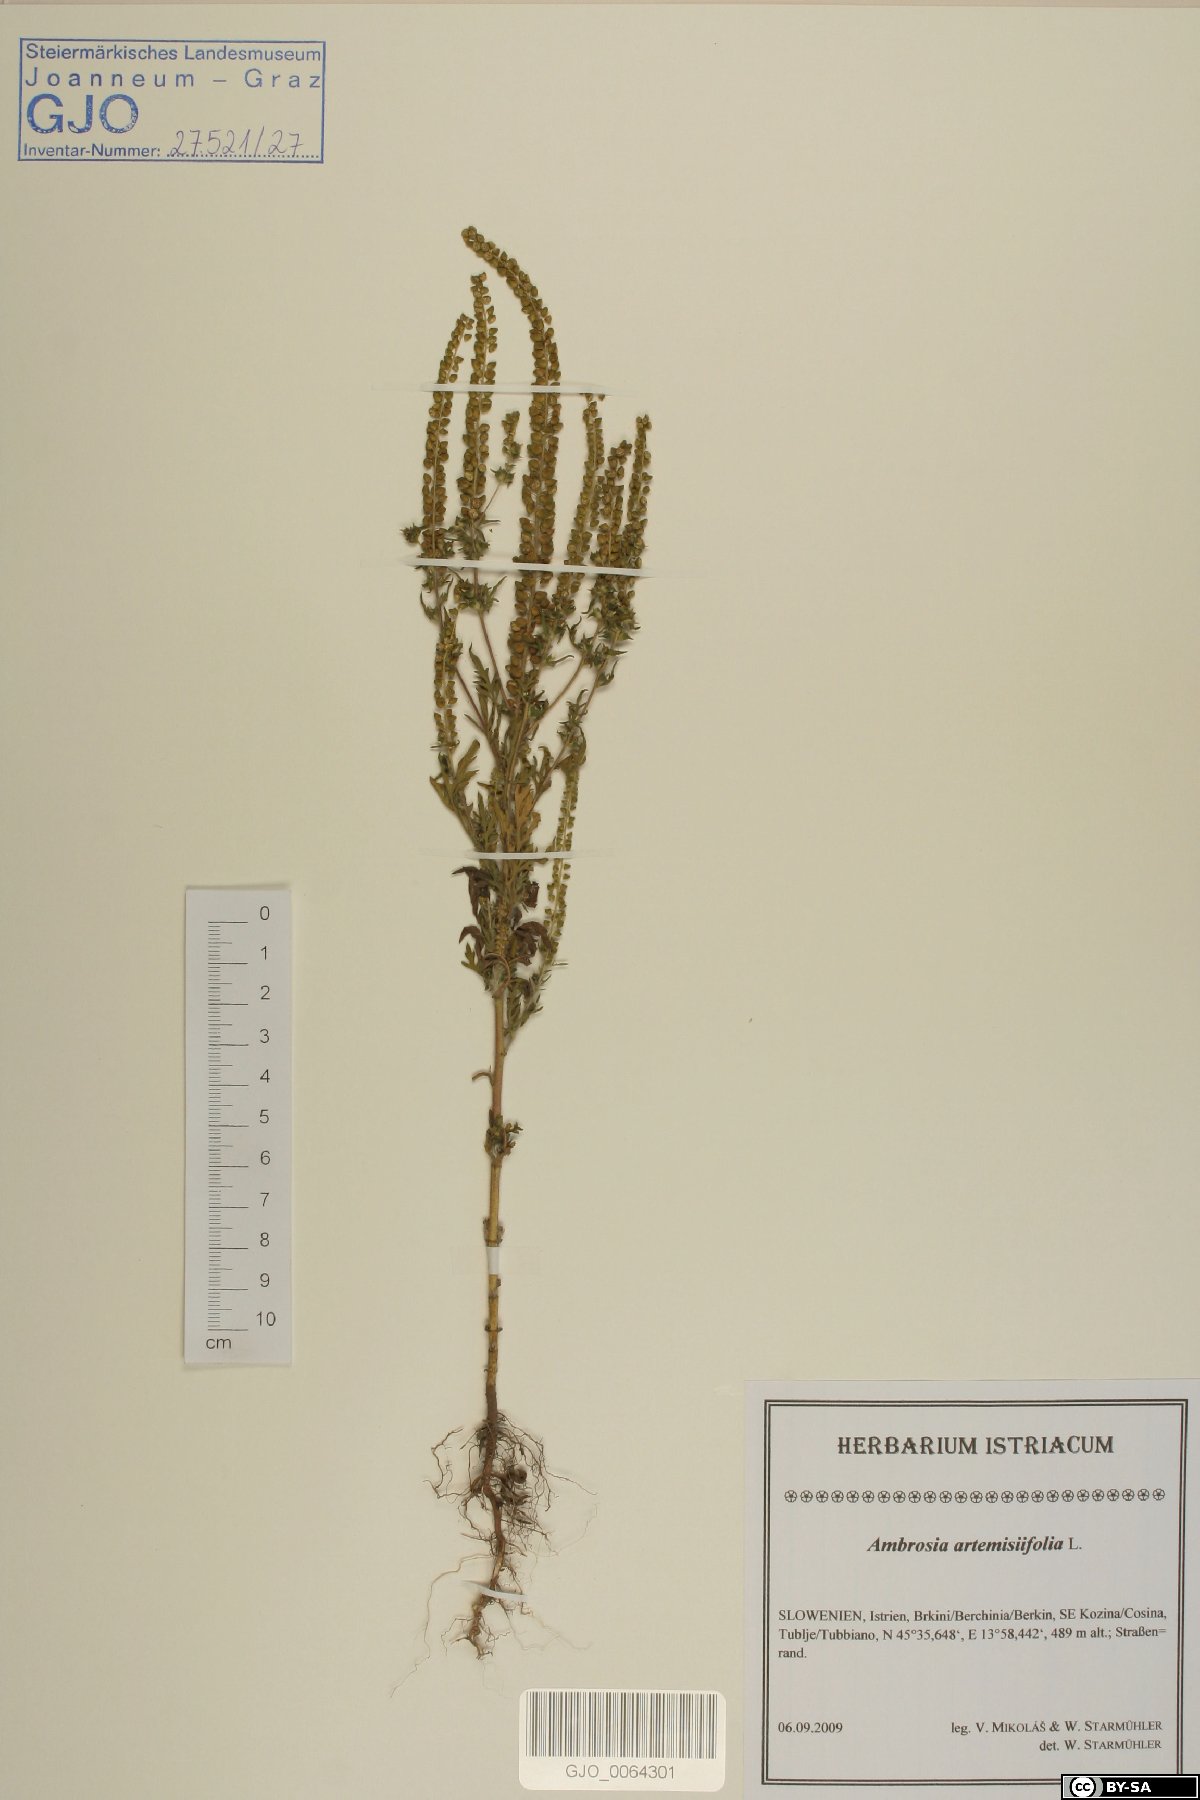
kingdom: Plantae
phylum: Tracheophyta
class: Magnoliopsida
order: Asterales
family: Asteraceae
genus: Ambrosia
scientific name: Ambrosia artemisiifolia
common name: Annual ragweed
